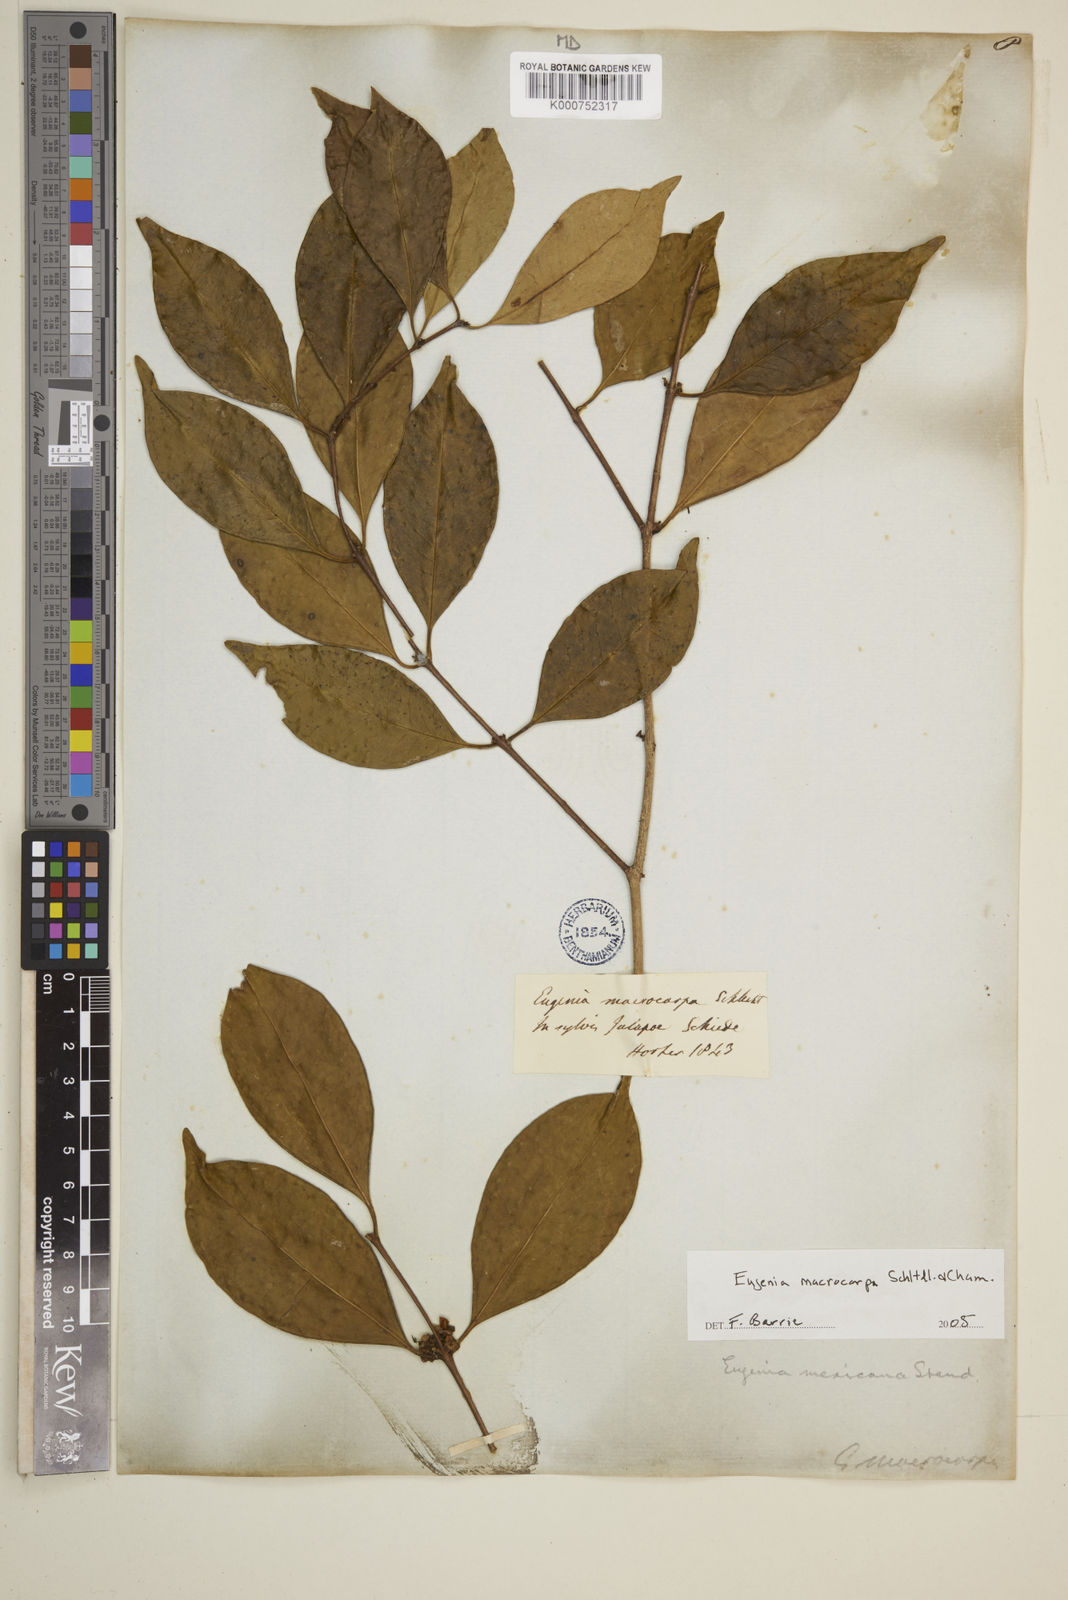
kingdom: Plantae
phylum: Tracheophyta
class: Magnoliopsida
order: Myrtales
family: Myrtaceae
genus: Eugenia
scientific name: Eugenia macrocarpa
